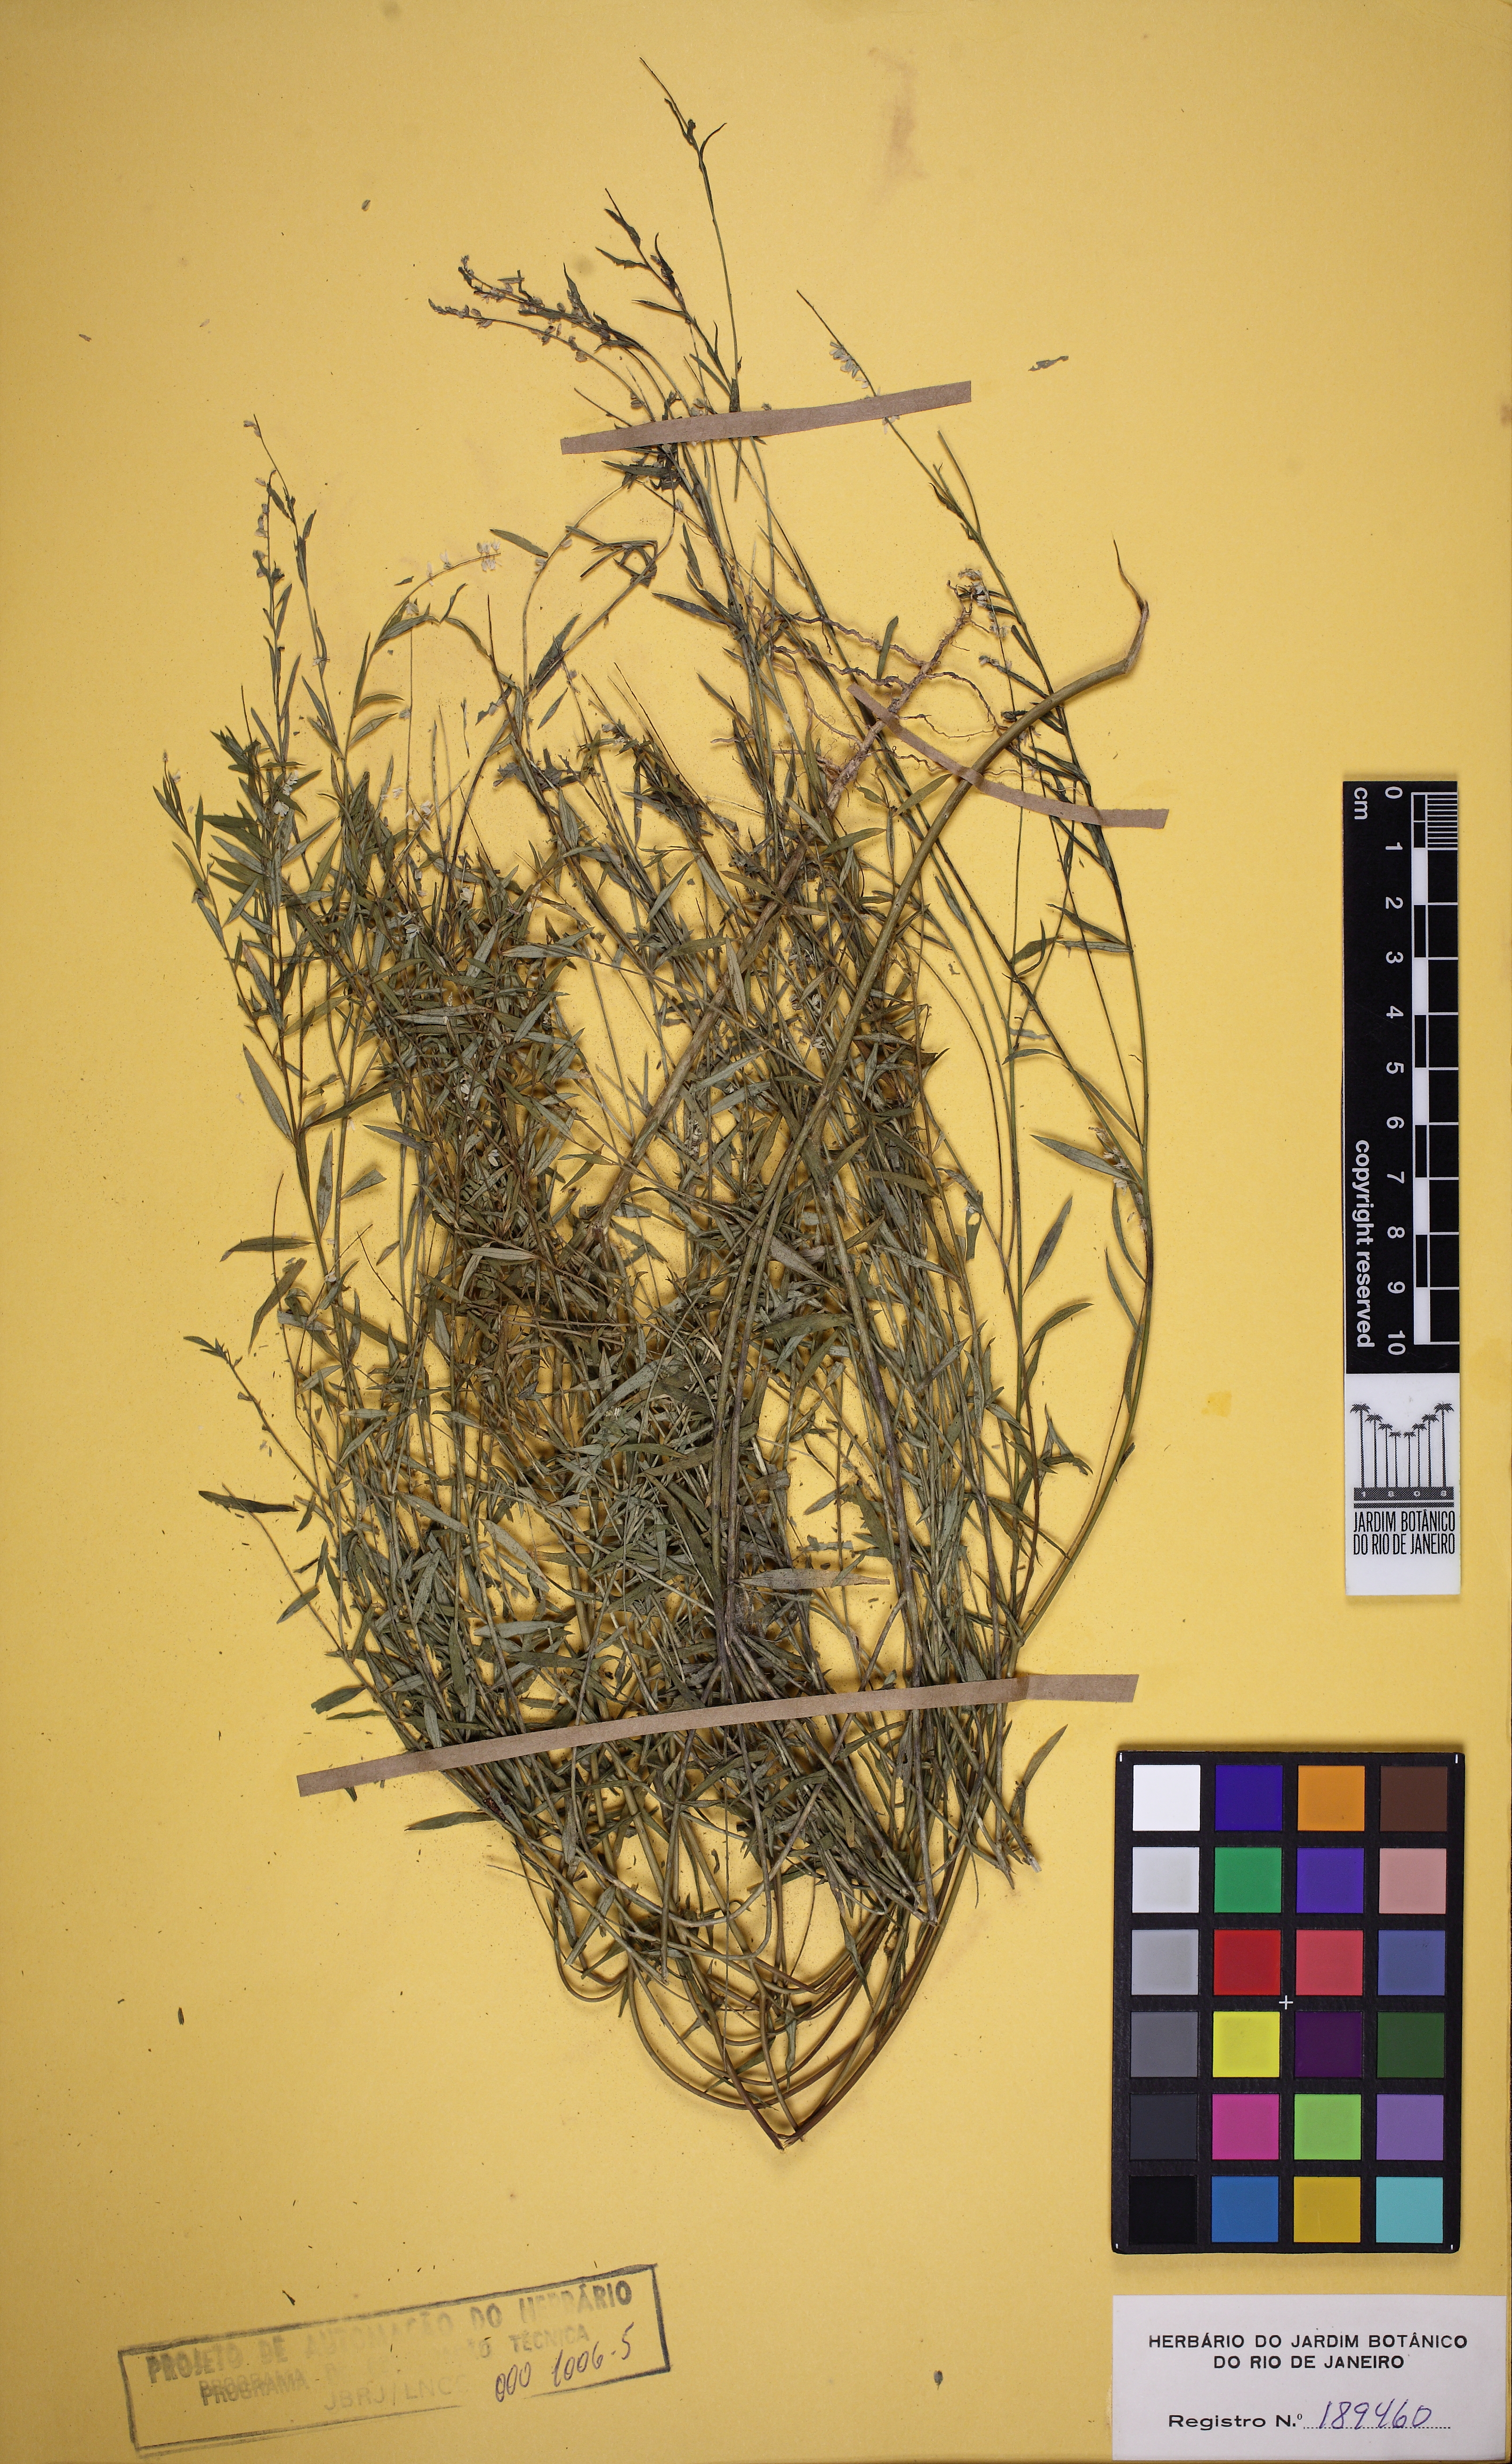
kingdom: Plantae
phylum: Tracheophyta
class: Magnoliopsida
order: Fabales
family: Polygalaceae
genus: Polygala
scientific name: Polygala paniculata
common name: Orosne
